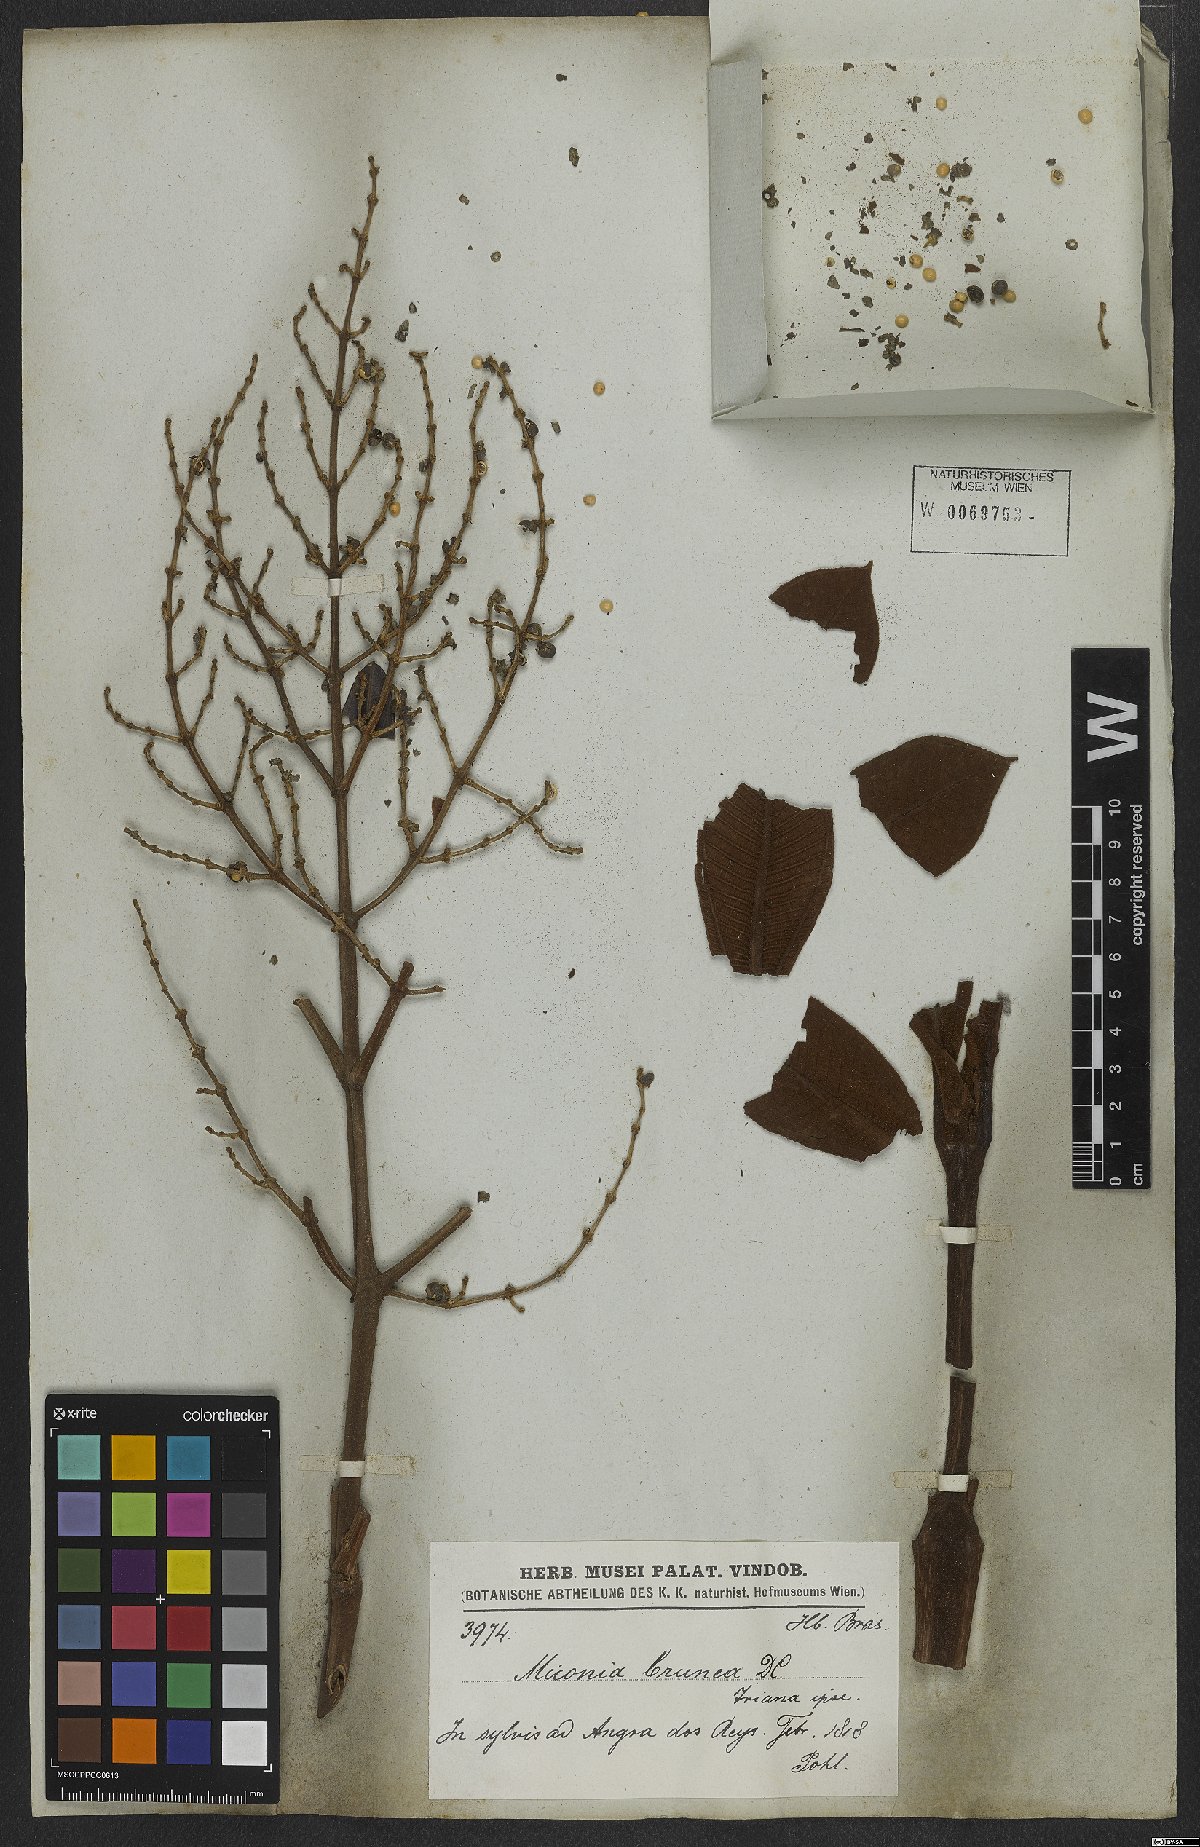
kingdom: Plantae
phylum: Tracheophyta
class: Magnoliopsida
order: Myrtales
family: Melastomataceae
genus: Miconia
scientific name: Miconia brunnea
